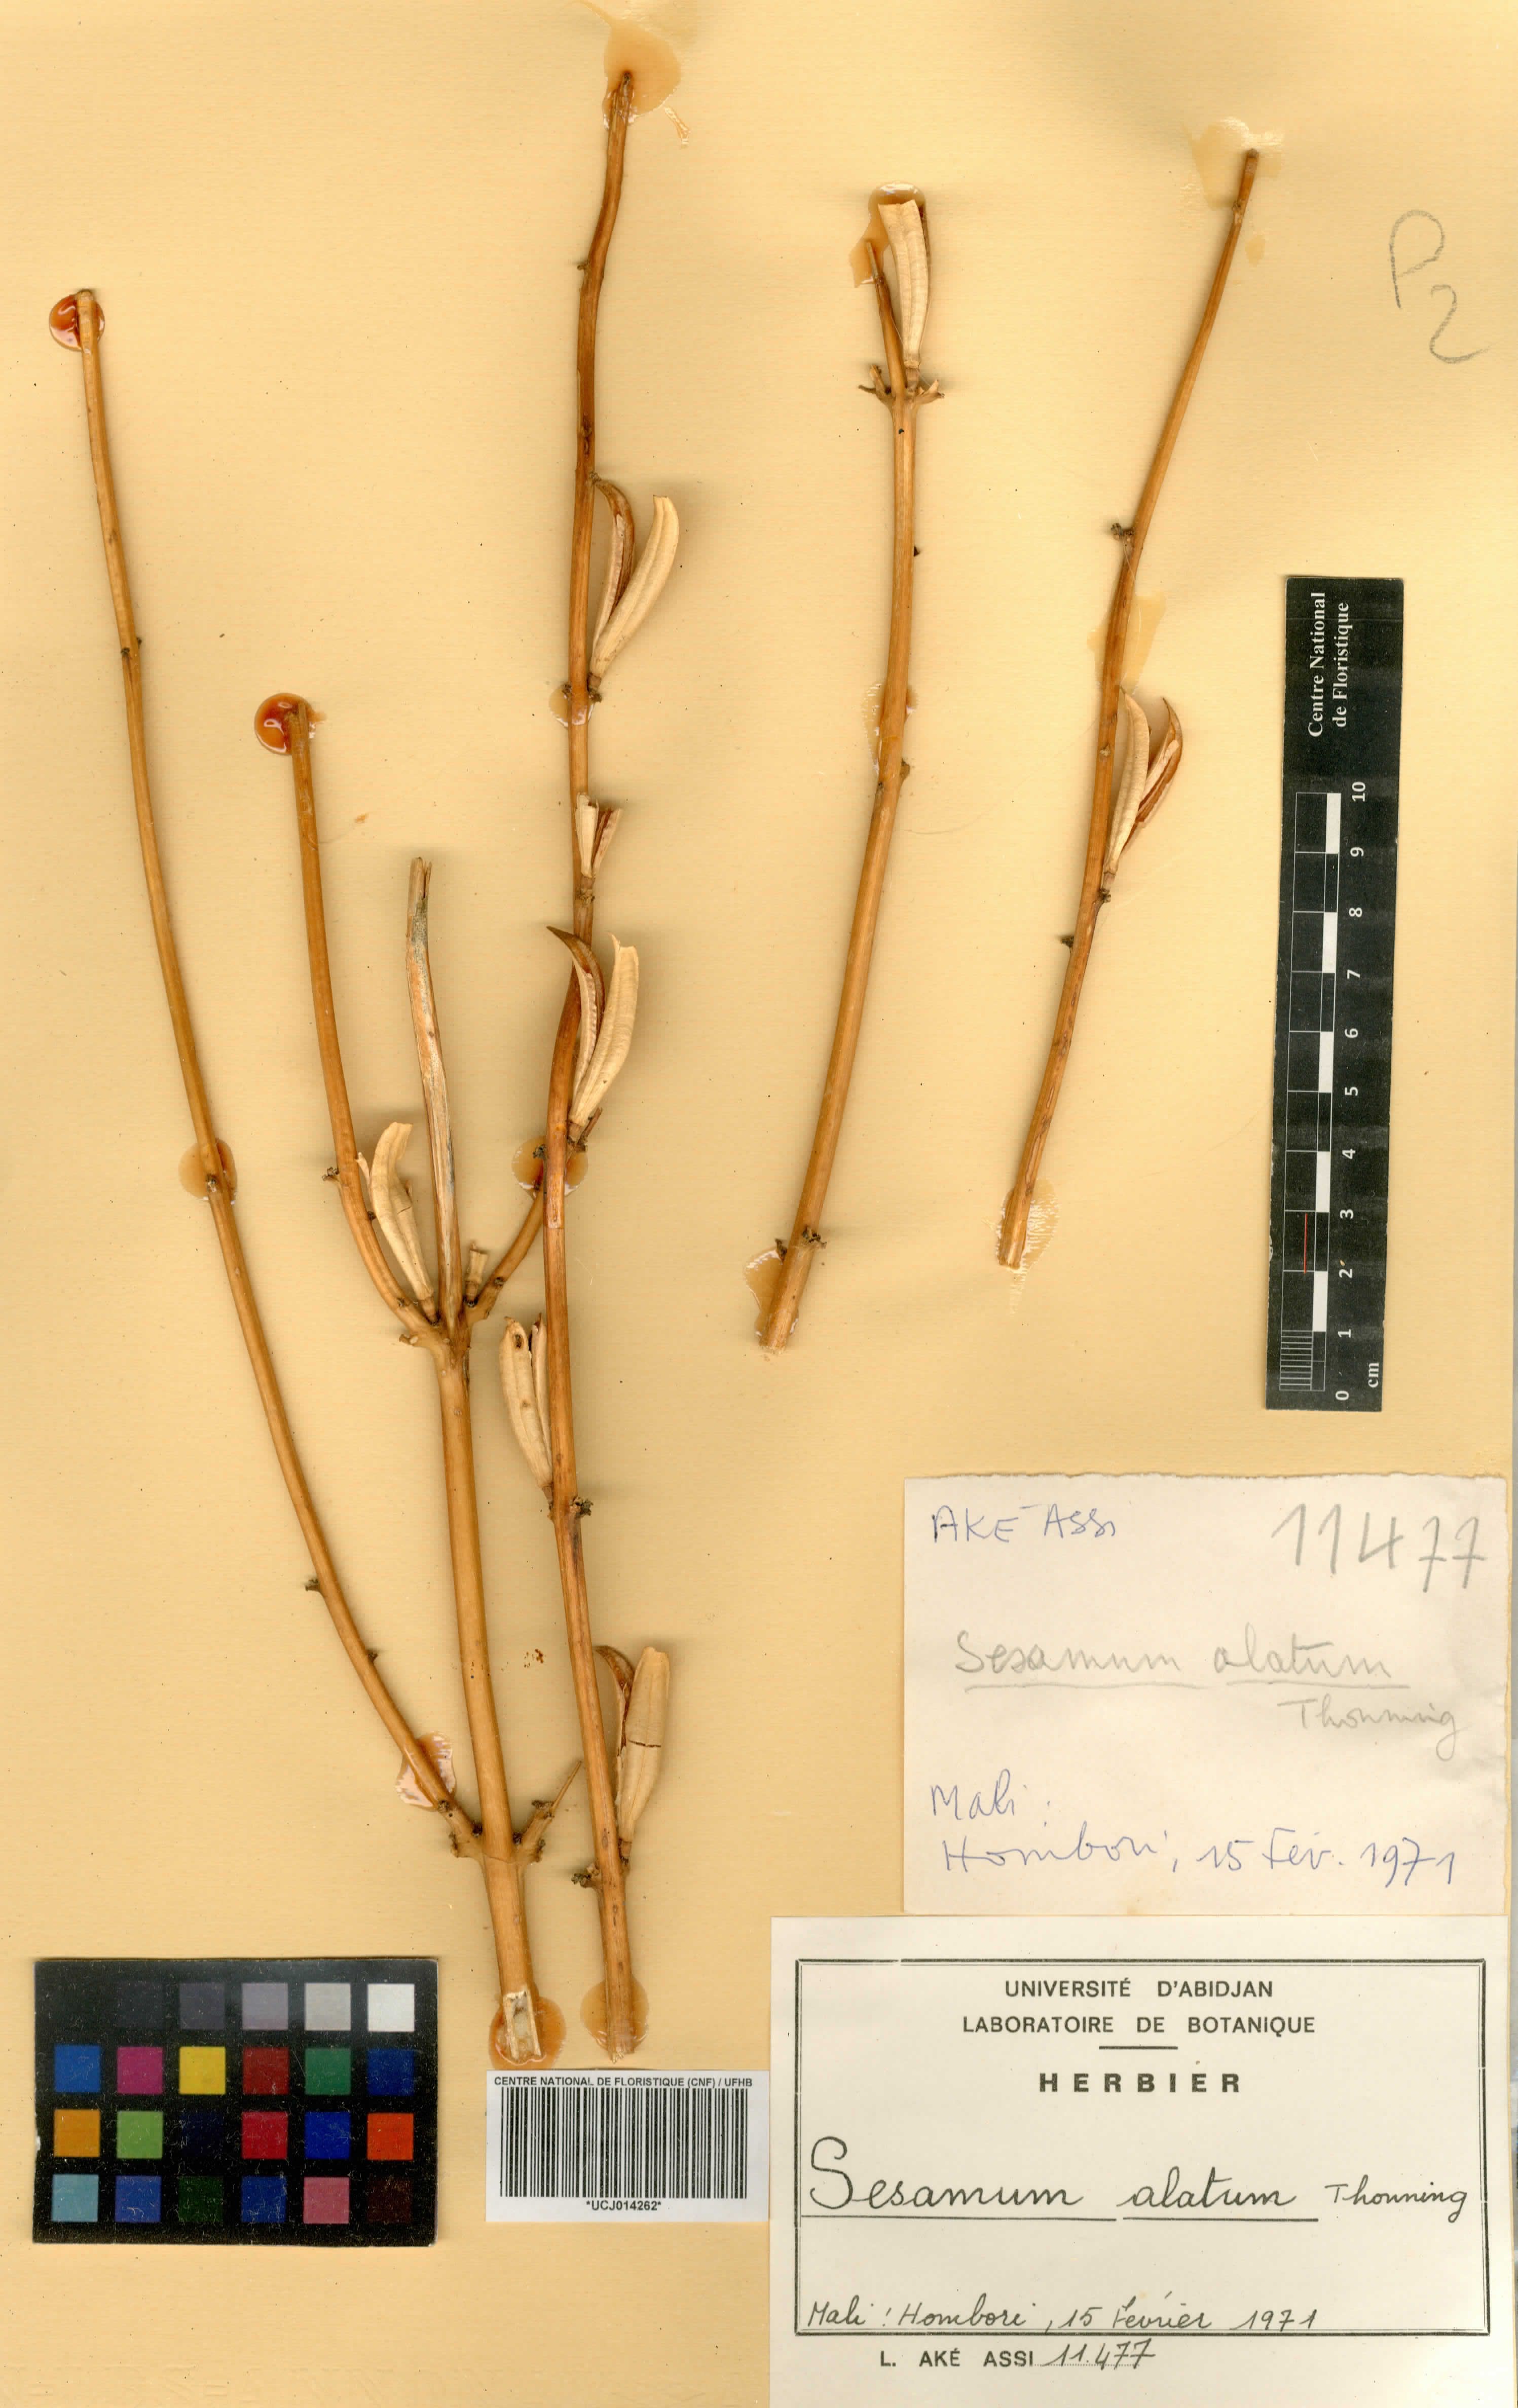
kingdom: Plantae
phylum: Tracheophyta
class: Magnoliopsida
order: Lamiales
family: Pedaliaceae
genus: Sesamum
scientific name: Sesamum alatum
